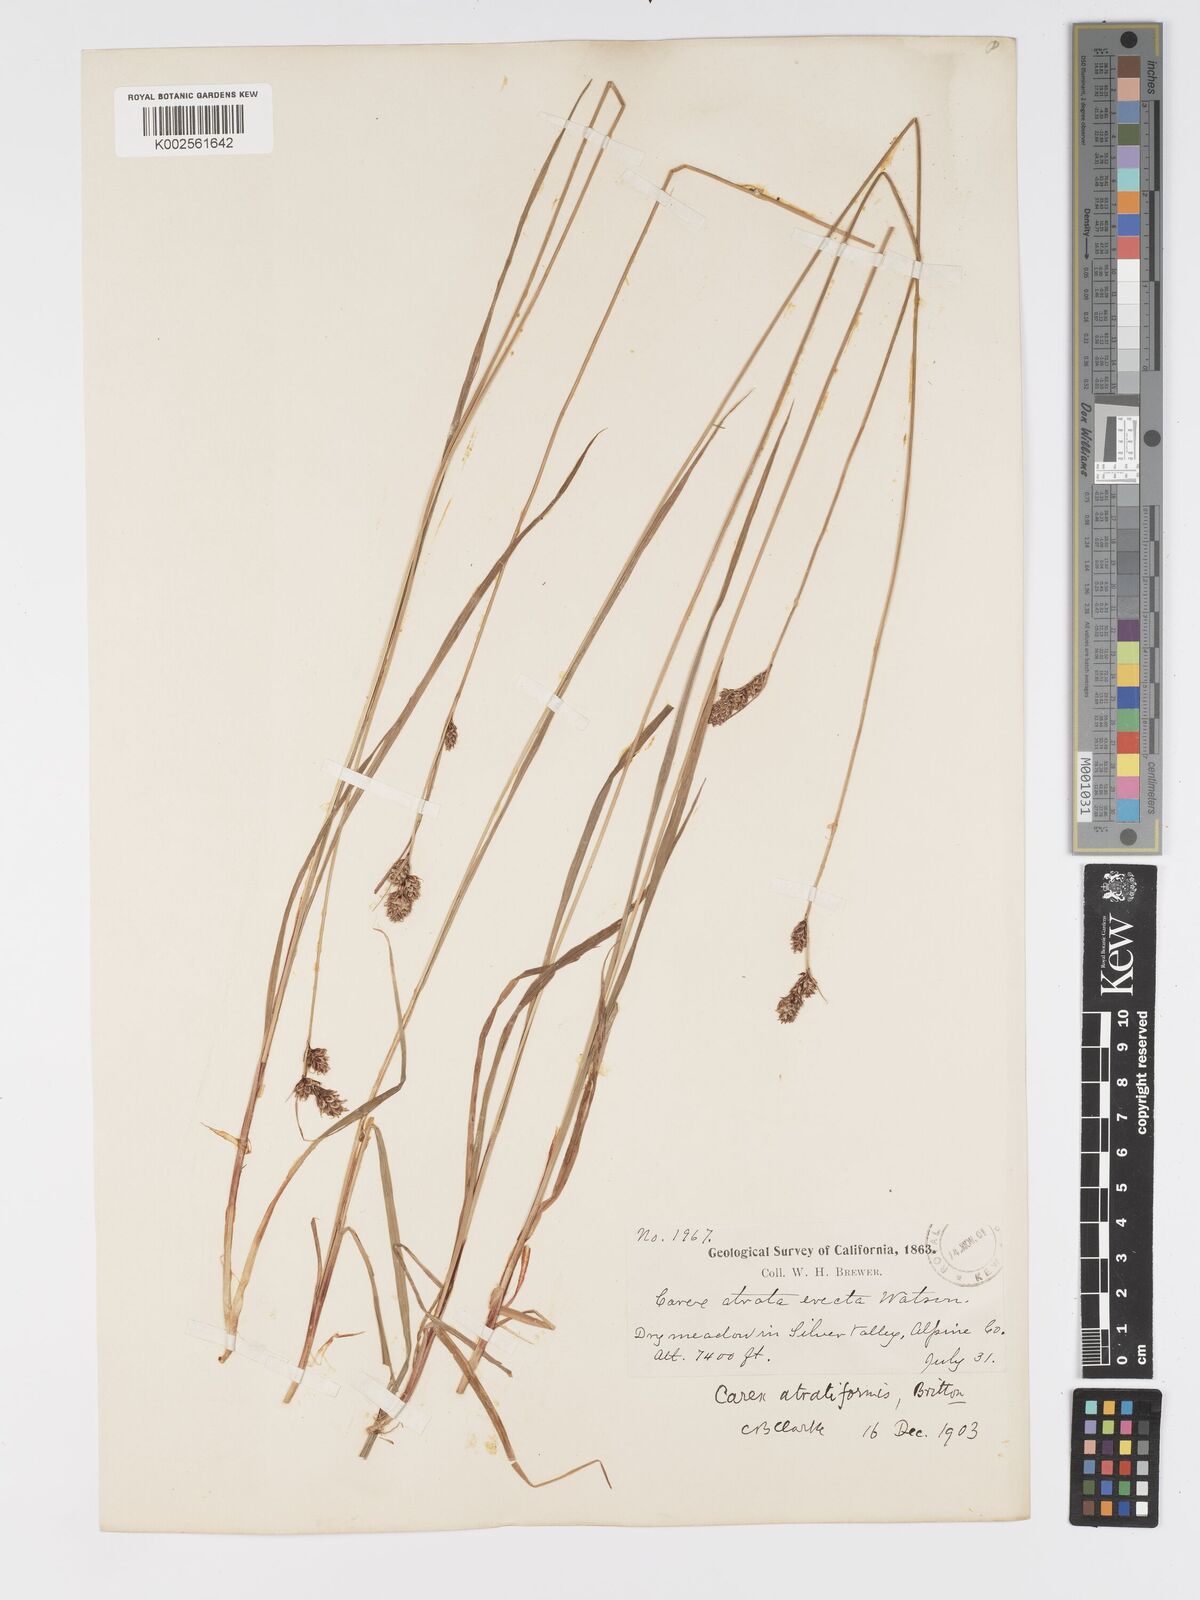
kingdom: Plantae
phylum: Tracheophyta
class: Liliopsida
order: Poales
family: Cyperaceae
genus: Carex
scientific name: Carex heteroneura
